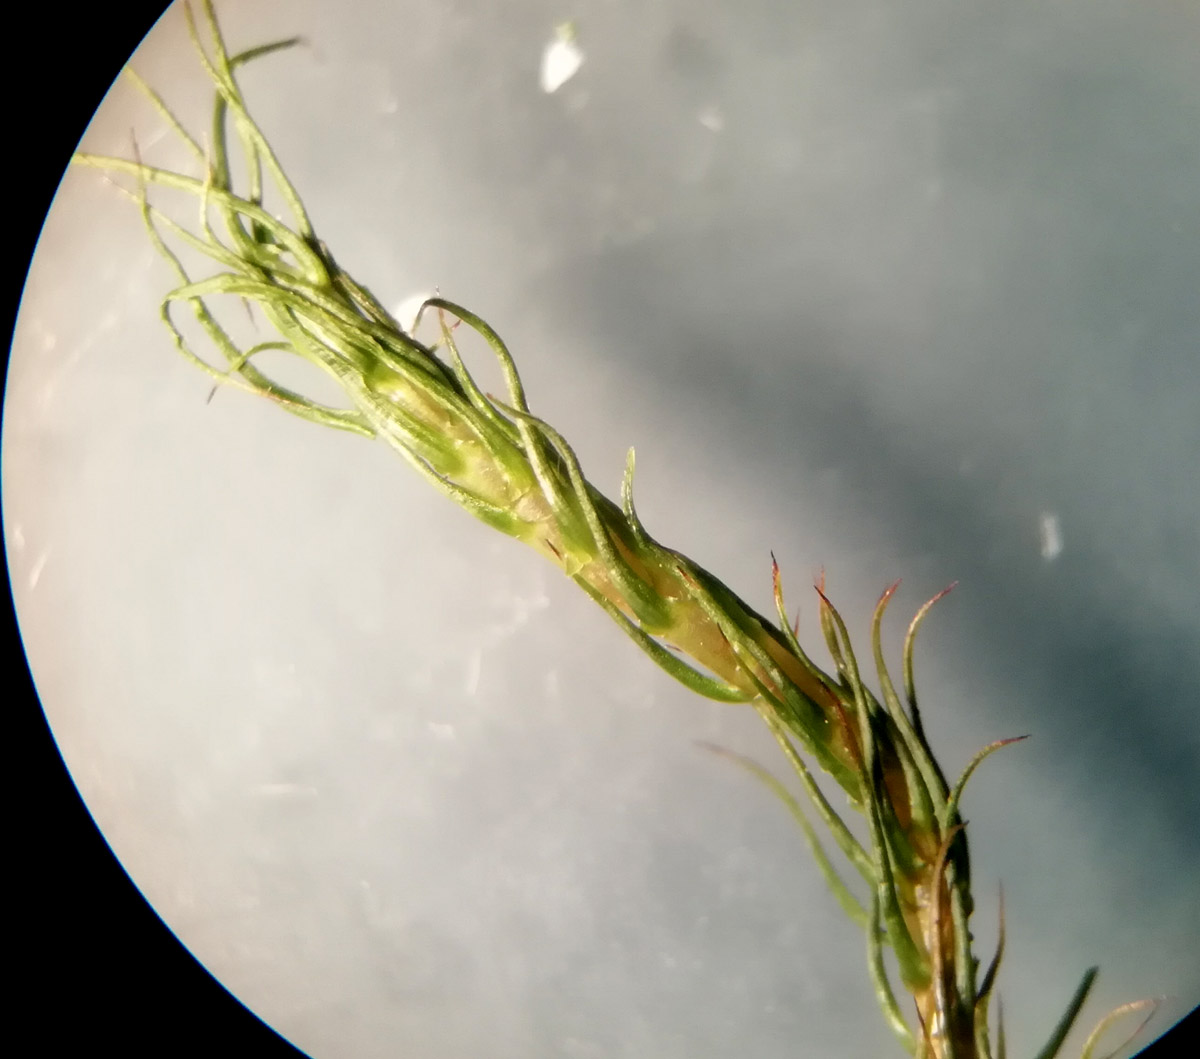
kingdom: Plantae
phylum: Bryophyta
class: Polytrichopsida
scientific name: Polytrichopsida
